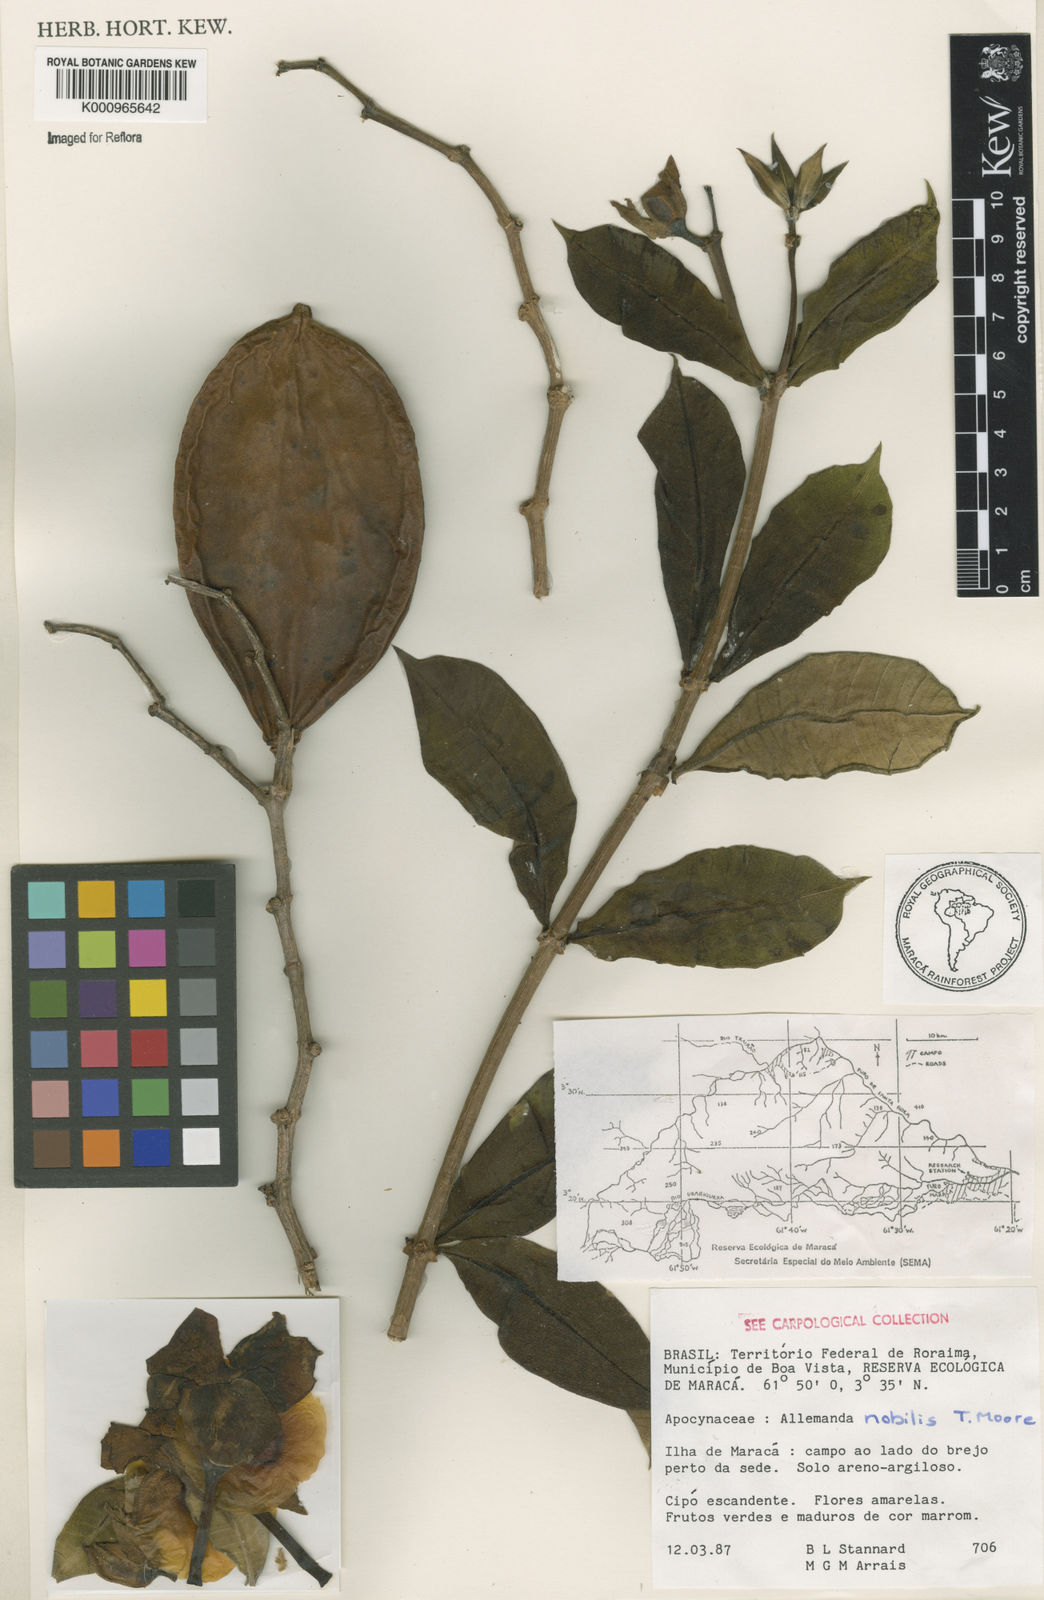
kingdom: Plantae
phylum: Tracheophyta
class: Magnoliopsida
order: Gentianales
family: Apocynaceae
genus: Allamanda
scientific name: Allamanda nobilis
